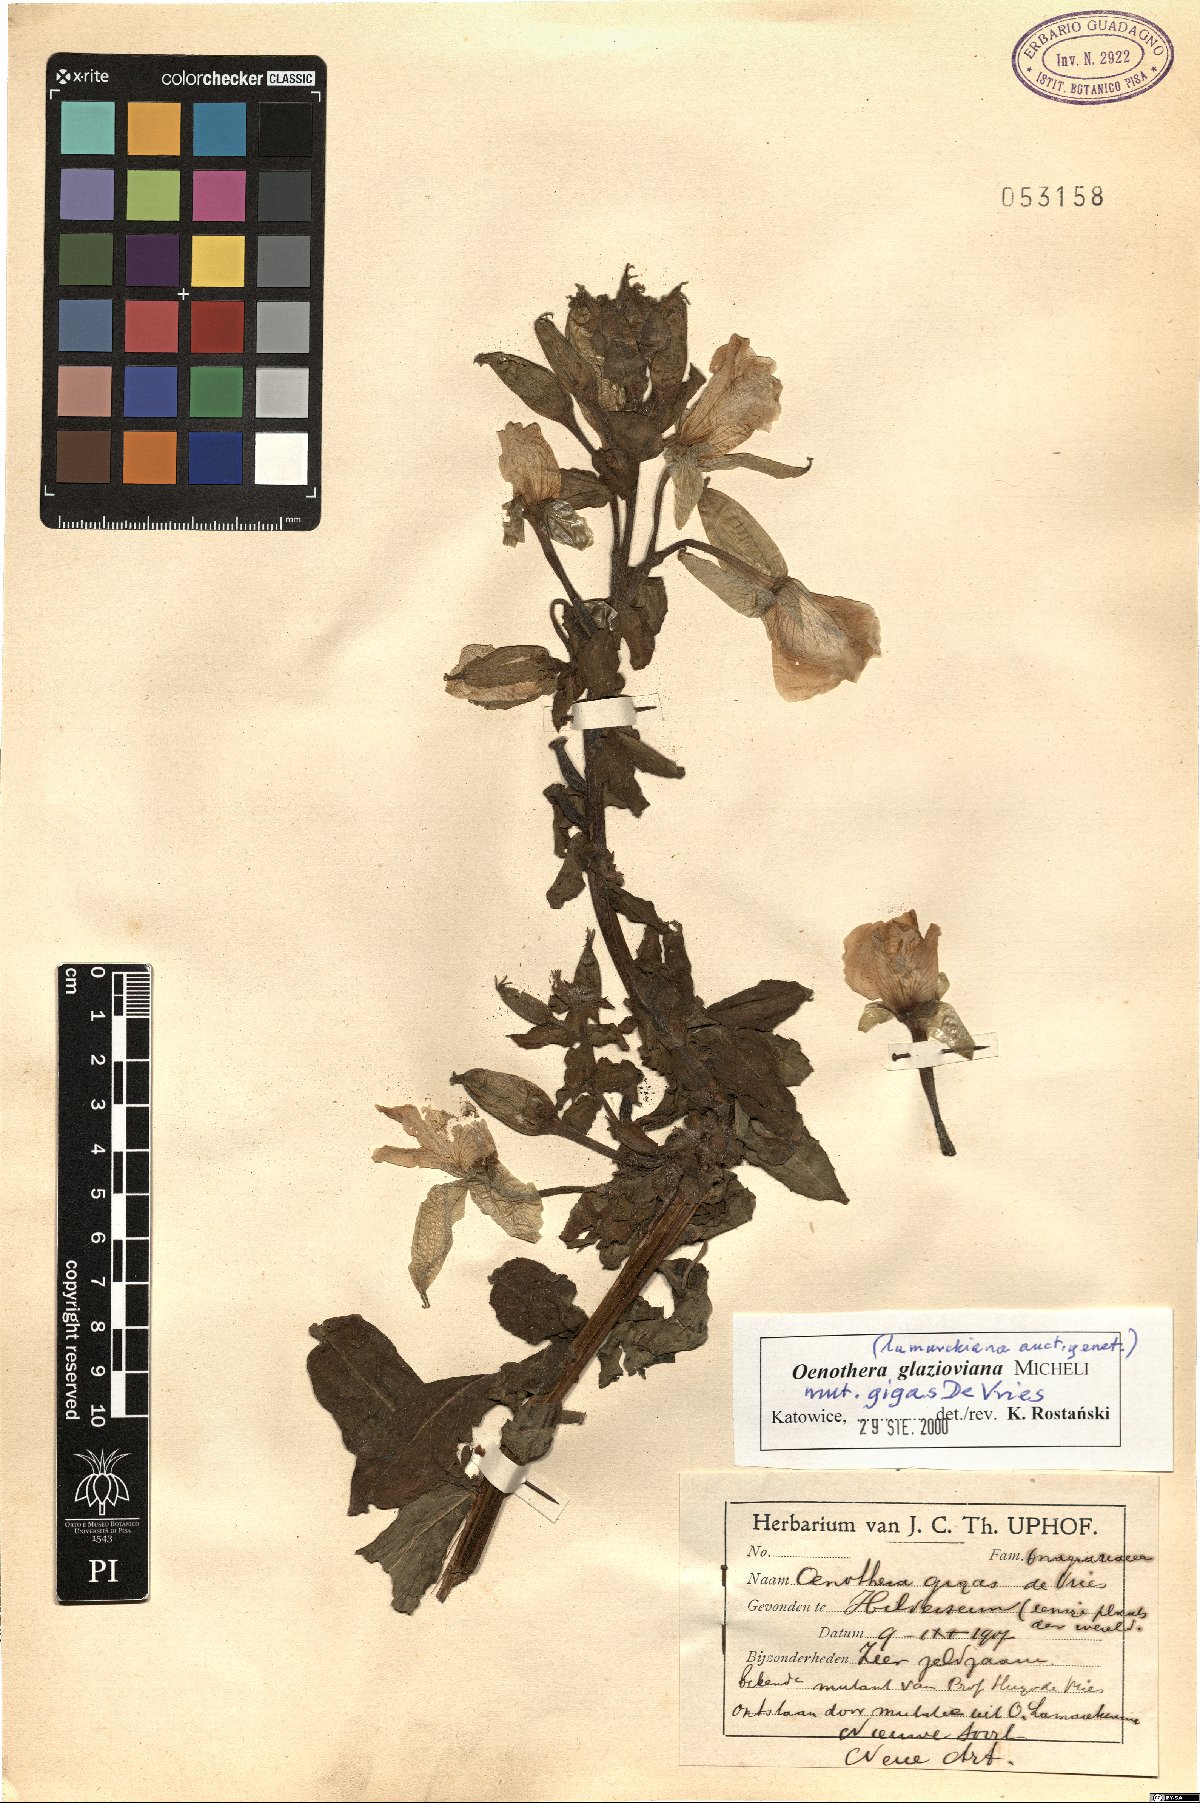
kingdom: Plantae
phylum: Tracheophyta
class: Magnoliopsida
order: Myrtales
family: Onagraceae
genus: Oenothera
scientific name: Oenothera glazioviana
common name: Large-flowered evening-primrose
